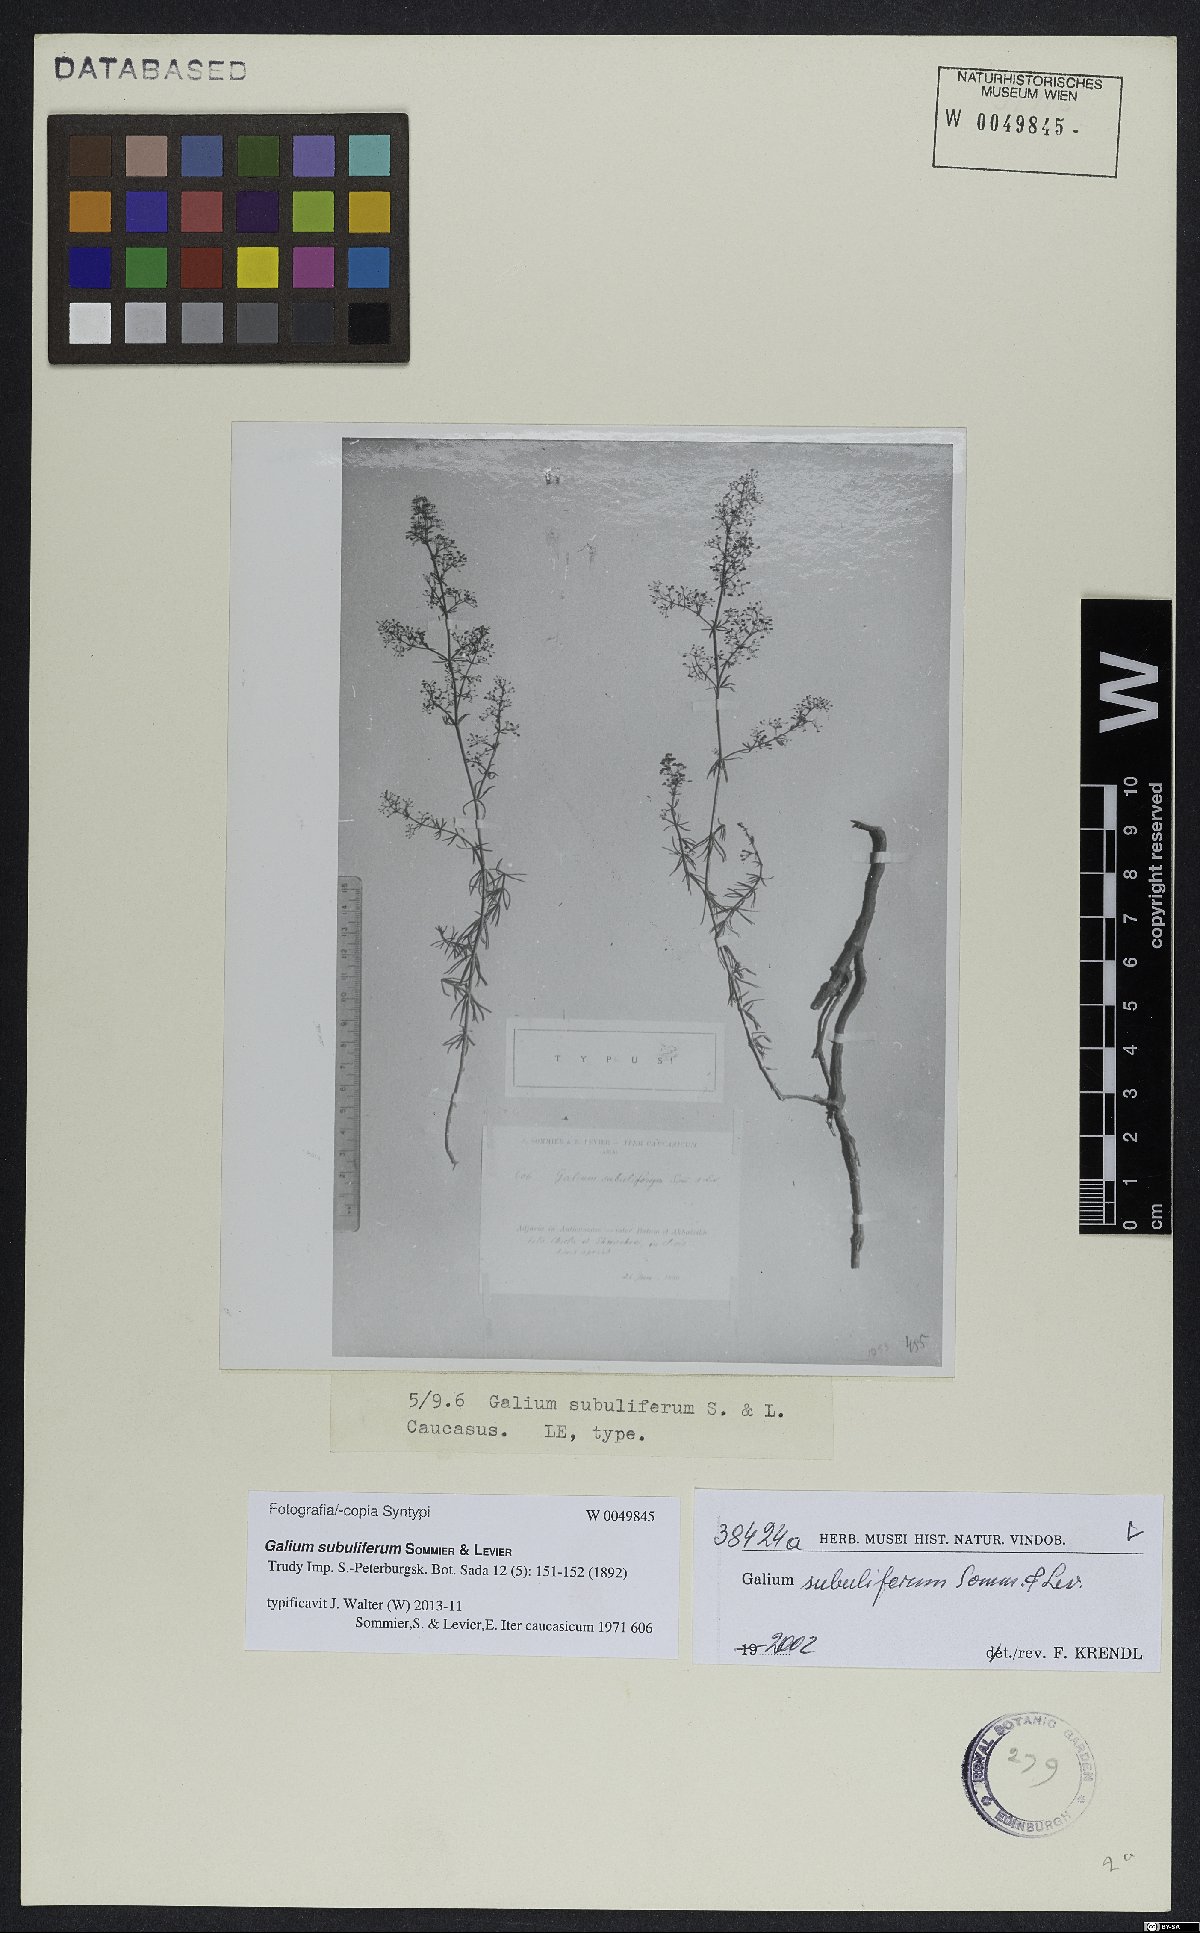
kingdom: Plantae
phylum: Tracheophyta
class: Magnoliopsida
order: Gentianales
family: Rubiaceae
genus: Galium
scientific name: Galium subuliferum
